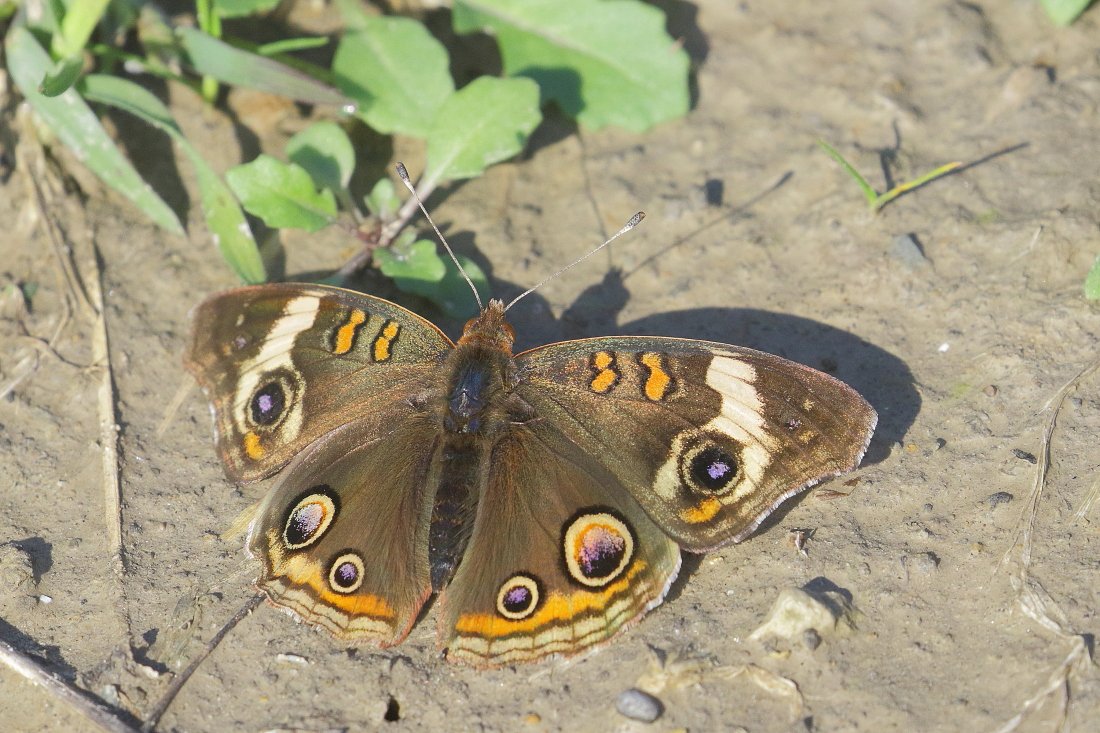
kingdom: Animalia
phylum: Arthropoda
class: Insecta
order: Lepidoptera
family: Nymphalidae
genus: Junonia
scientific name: Junonia coenia
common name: Common Buckeye
